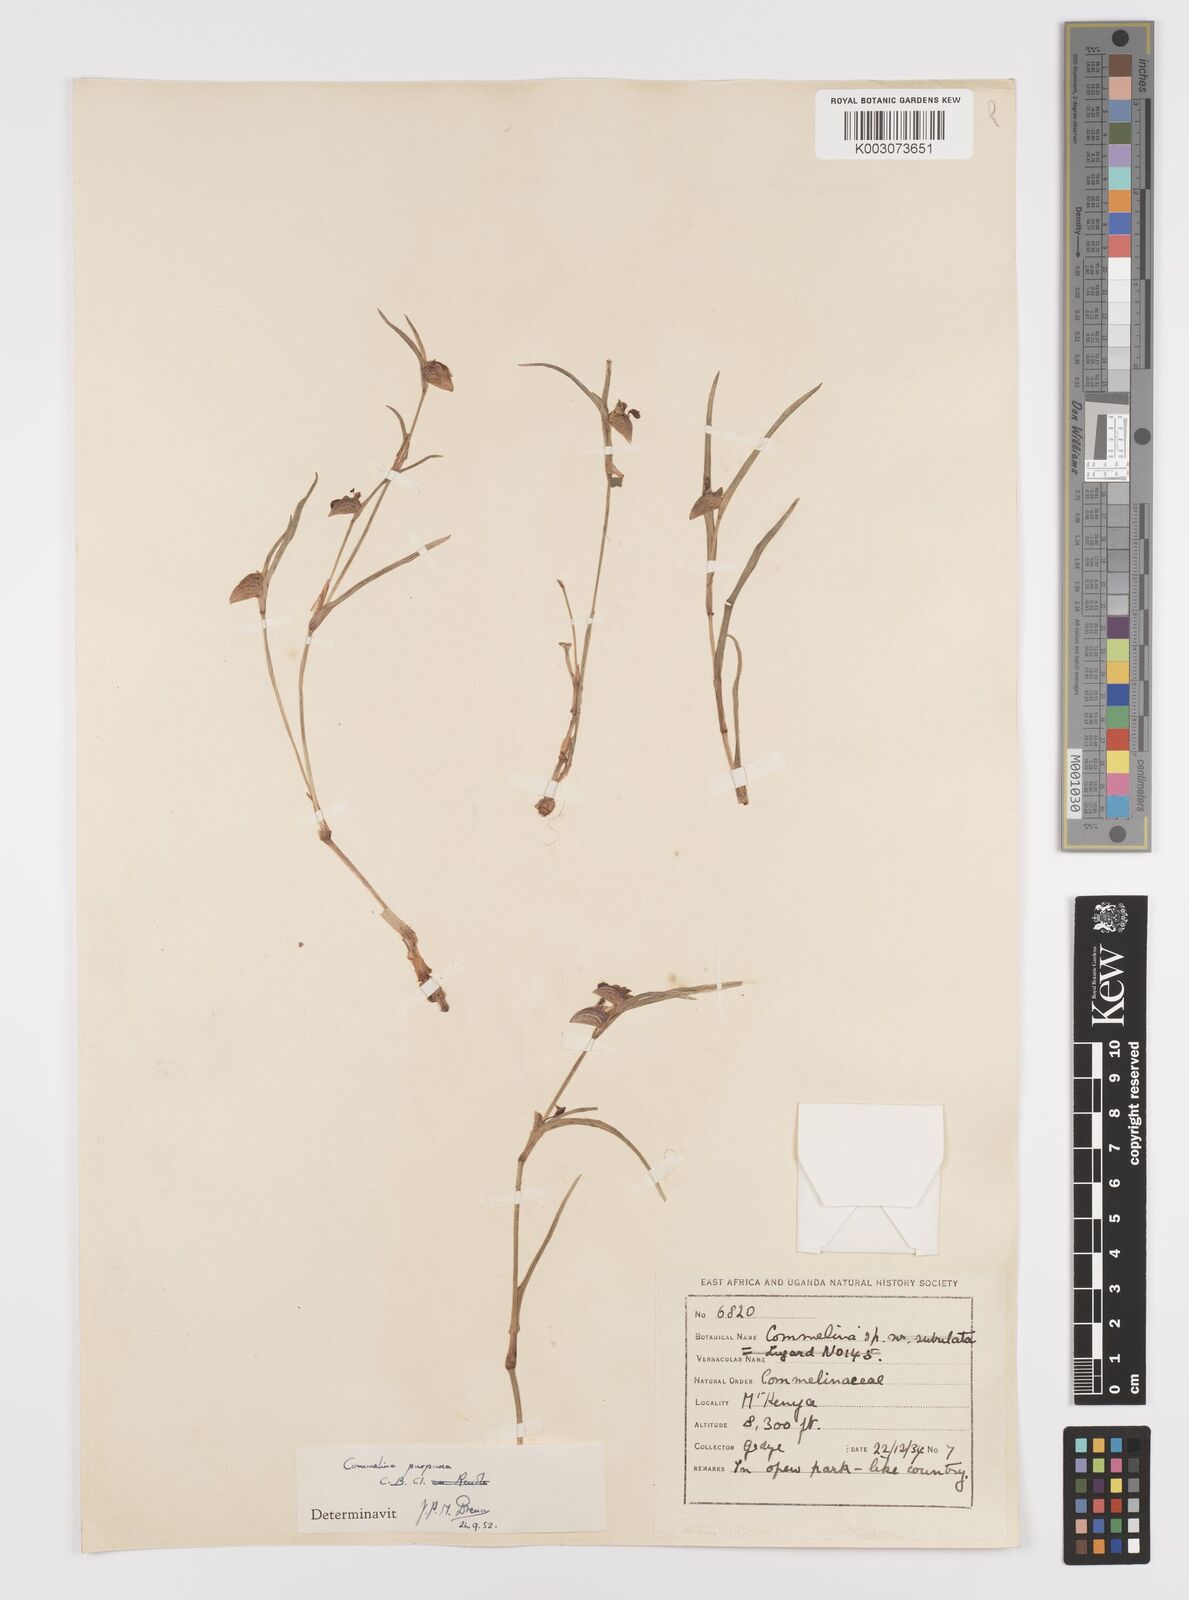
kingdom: Plantae
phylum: Tracheophyta
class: Liliopsida
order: Commelinales
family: Commelinaceae
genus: Commelina
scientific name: Commelina purpurea
